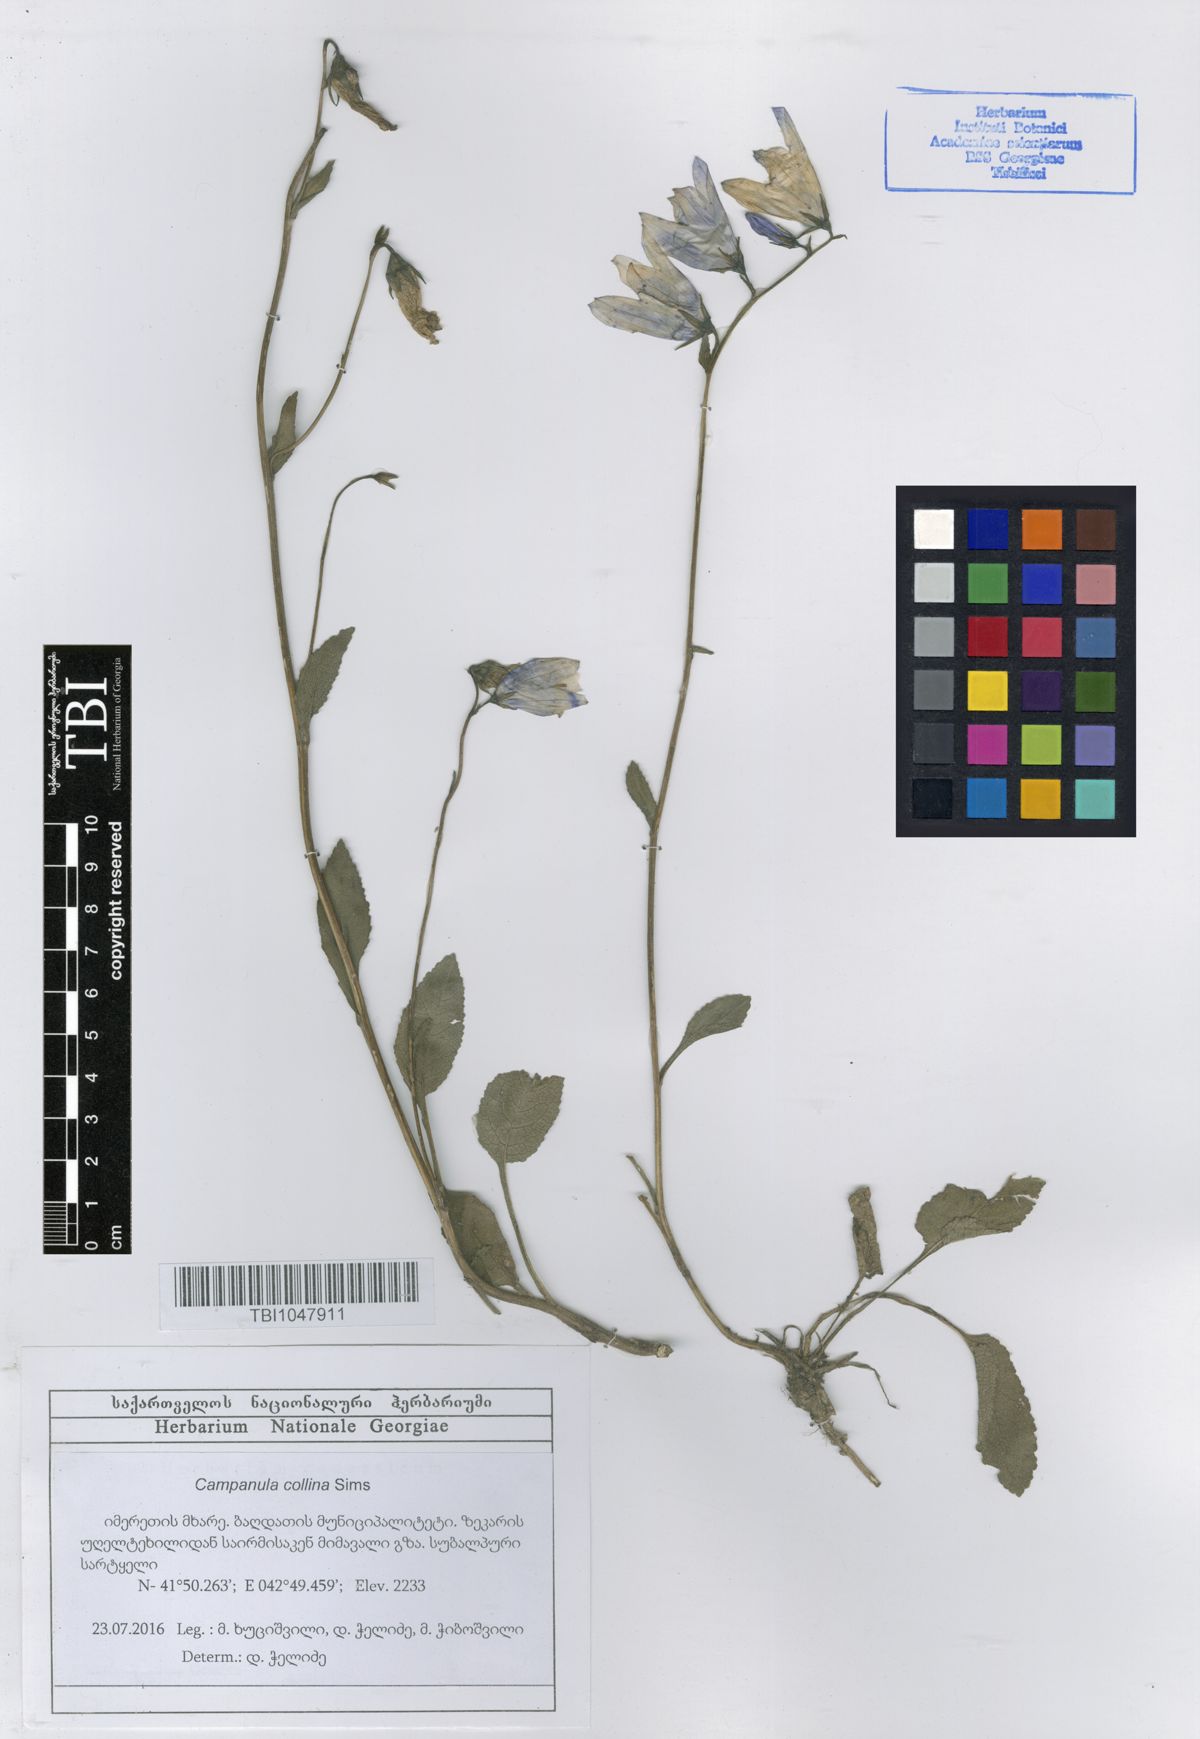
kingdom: Plantae
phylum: Tracheophyta
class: Magnoliopsida
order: Asterales
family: Campanulaceae
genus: Campanula
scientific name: Campanula collina
